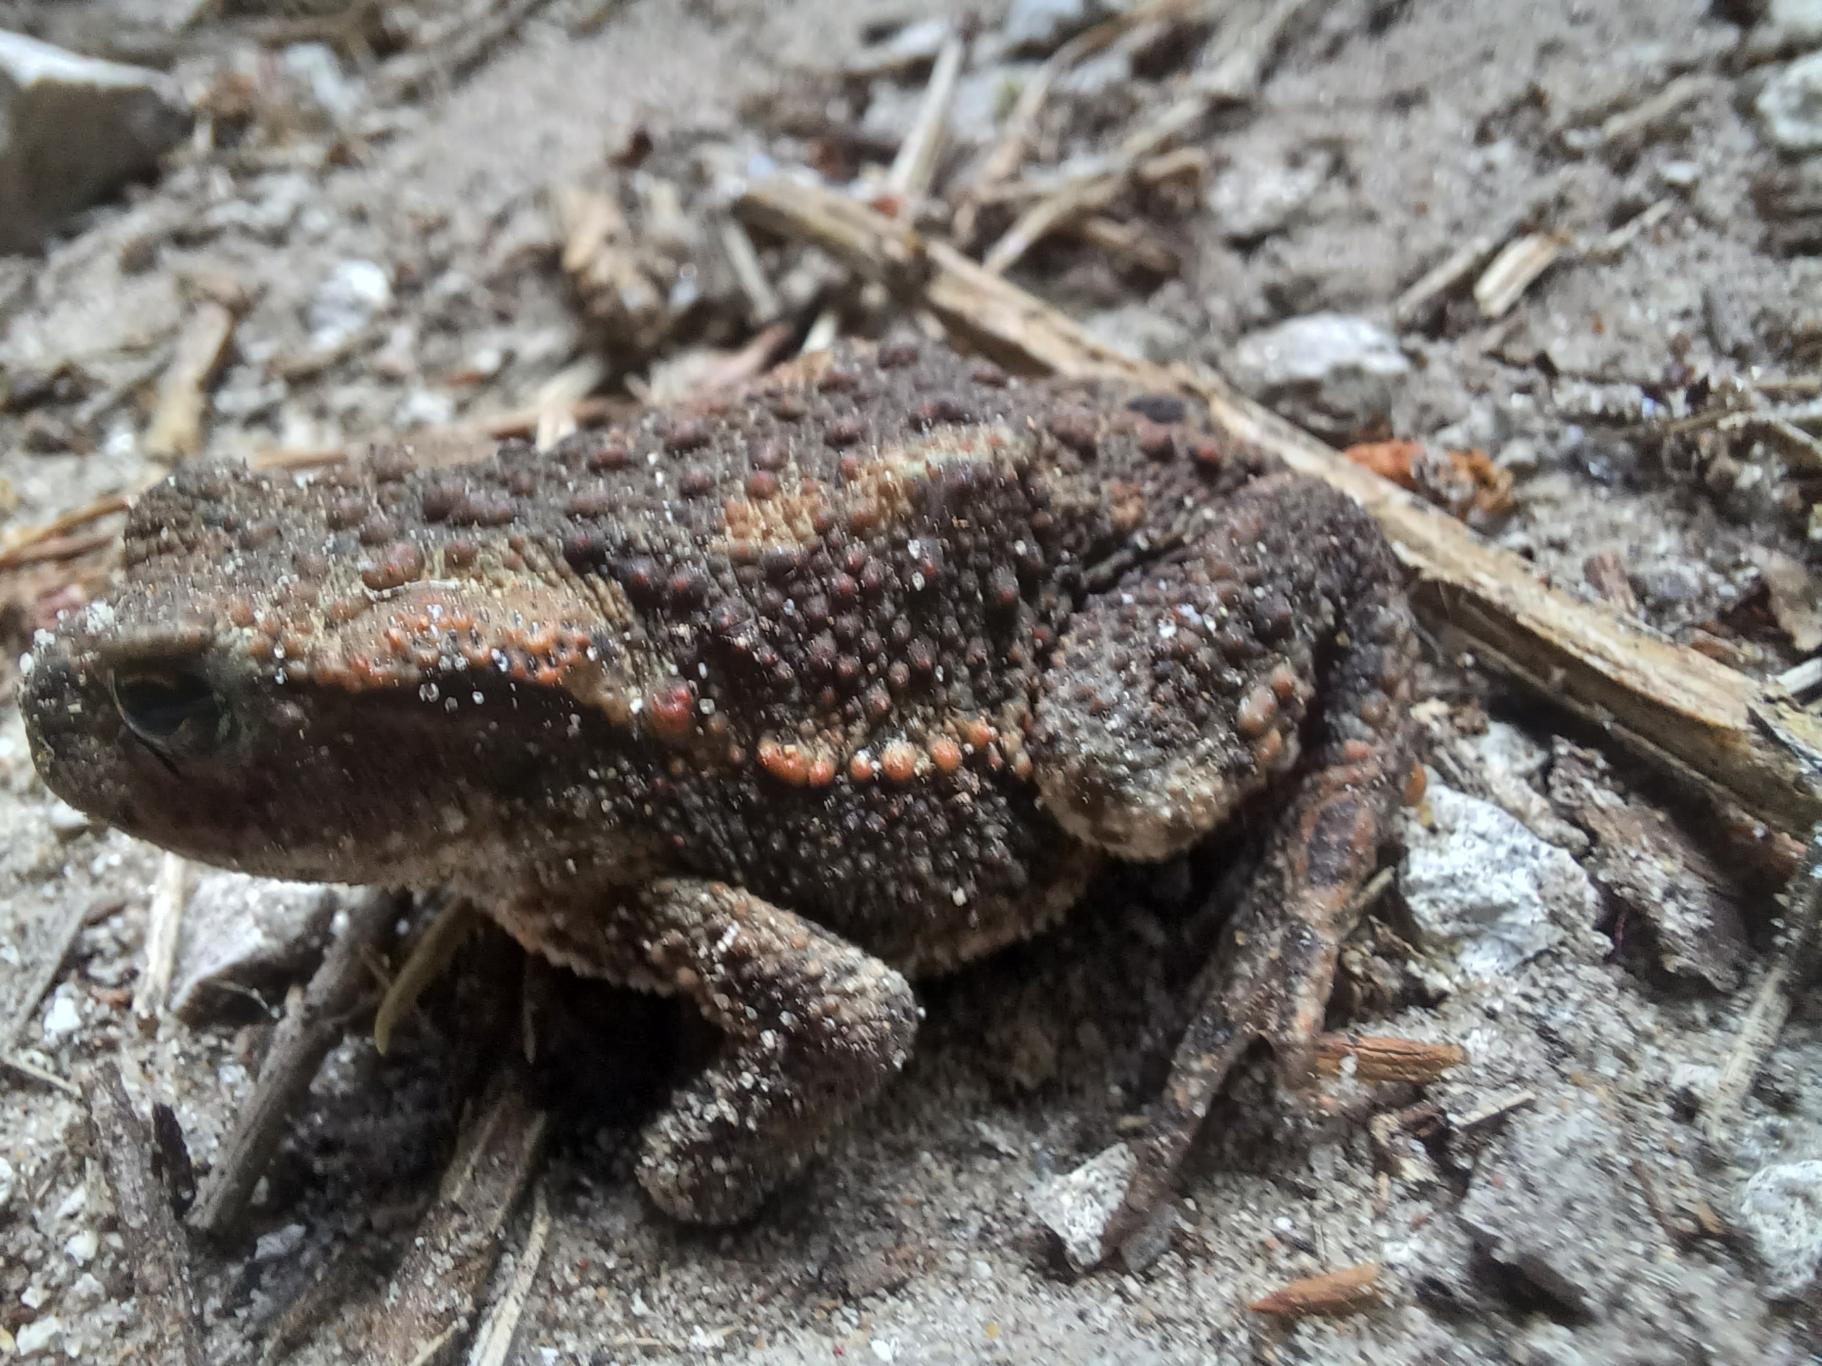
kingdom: Animalia
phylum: Chordata
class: Amphibia
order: Anura
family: Bufonidae
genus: Bufo
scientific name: Bufo bufo
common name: Skrubtudse
